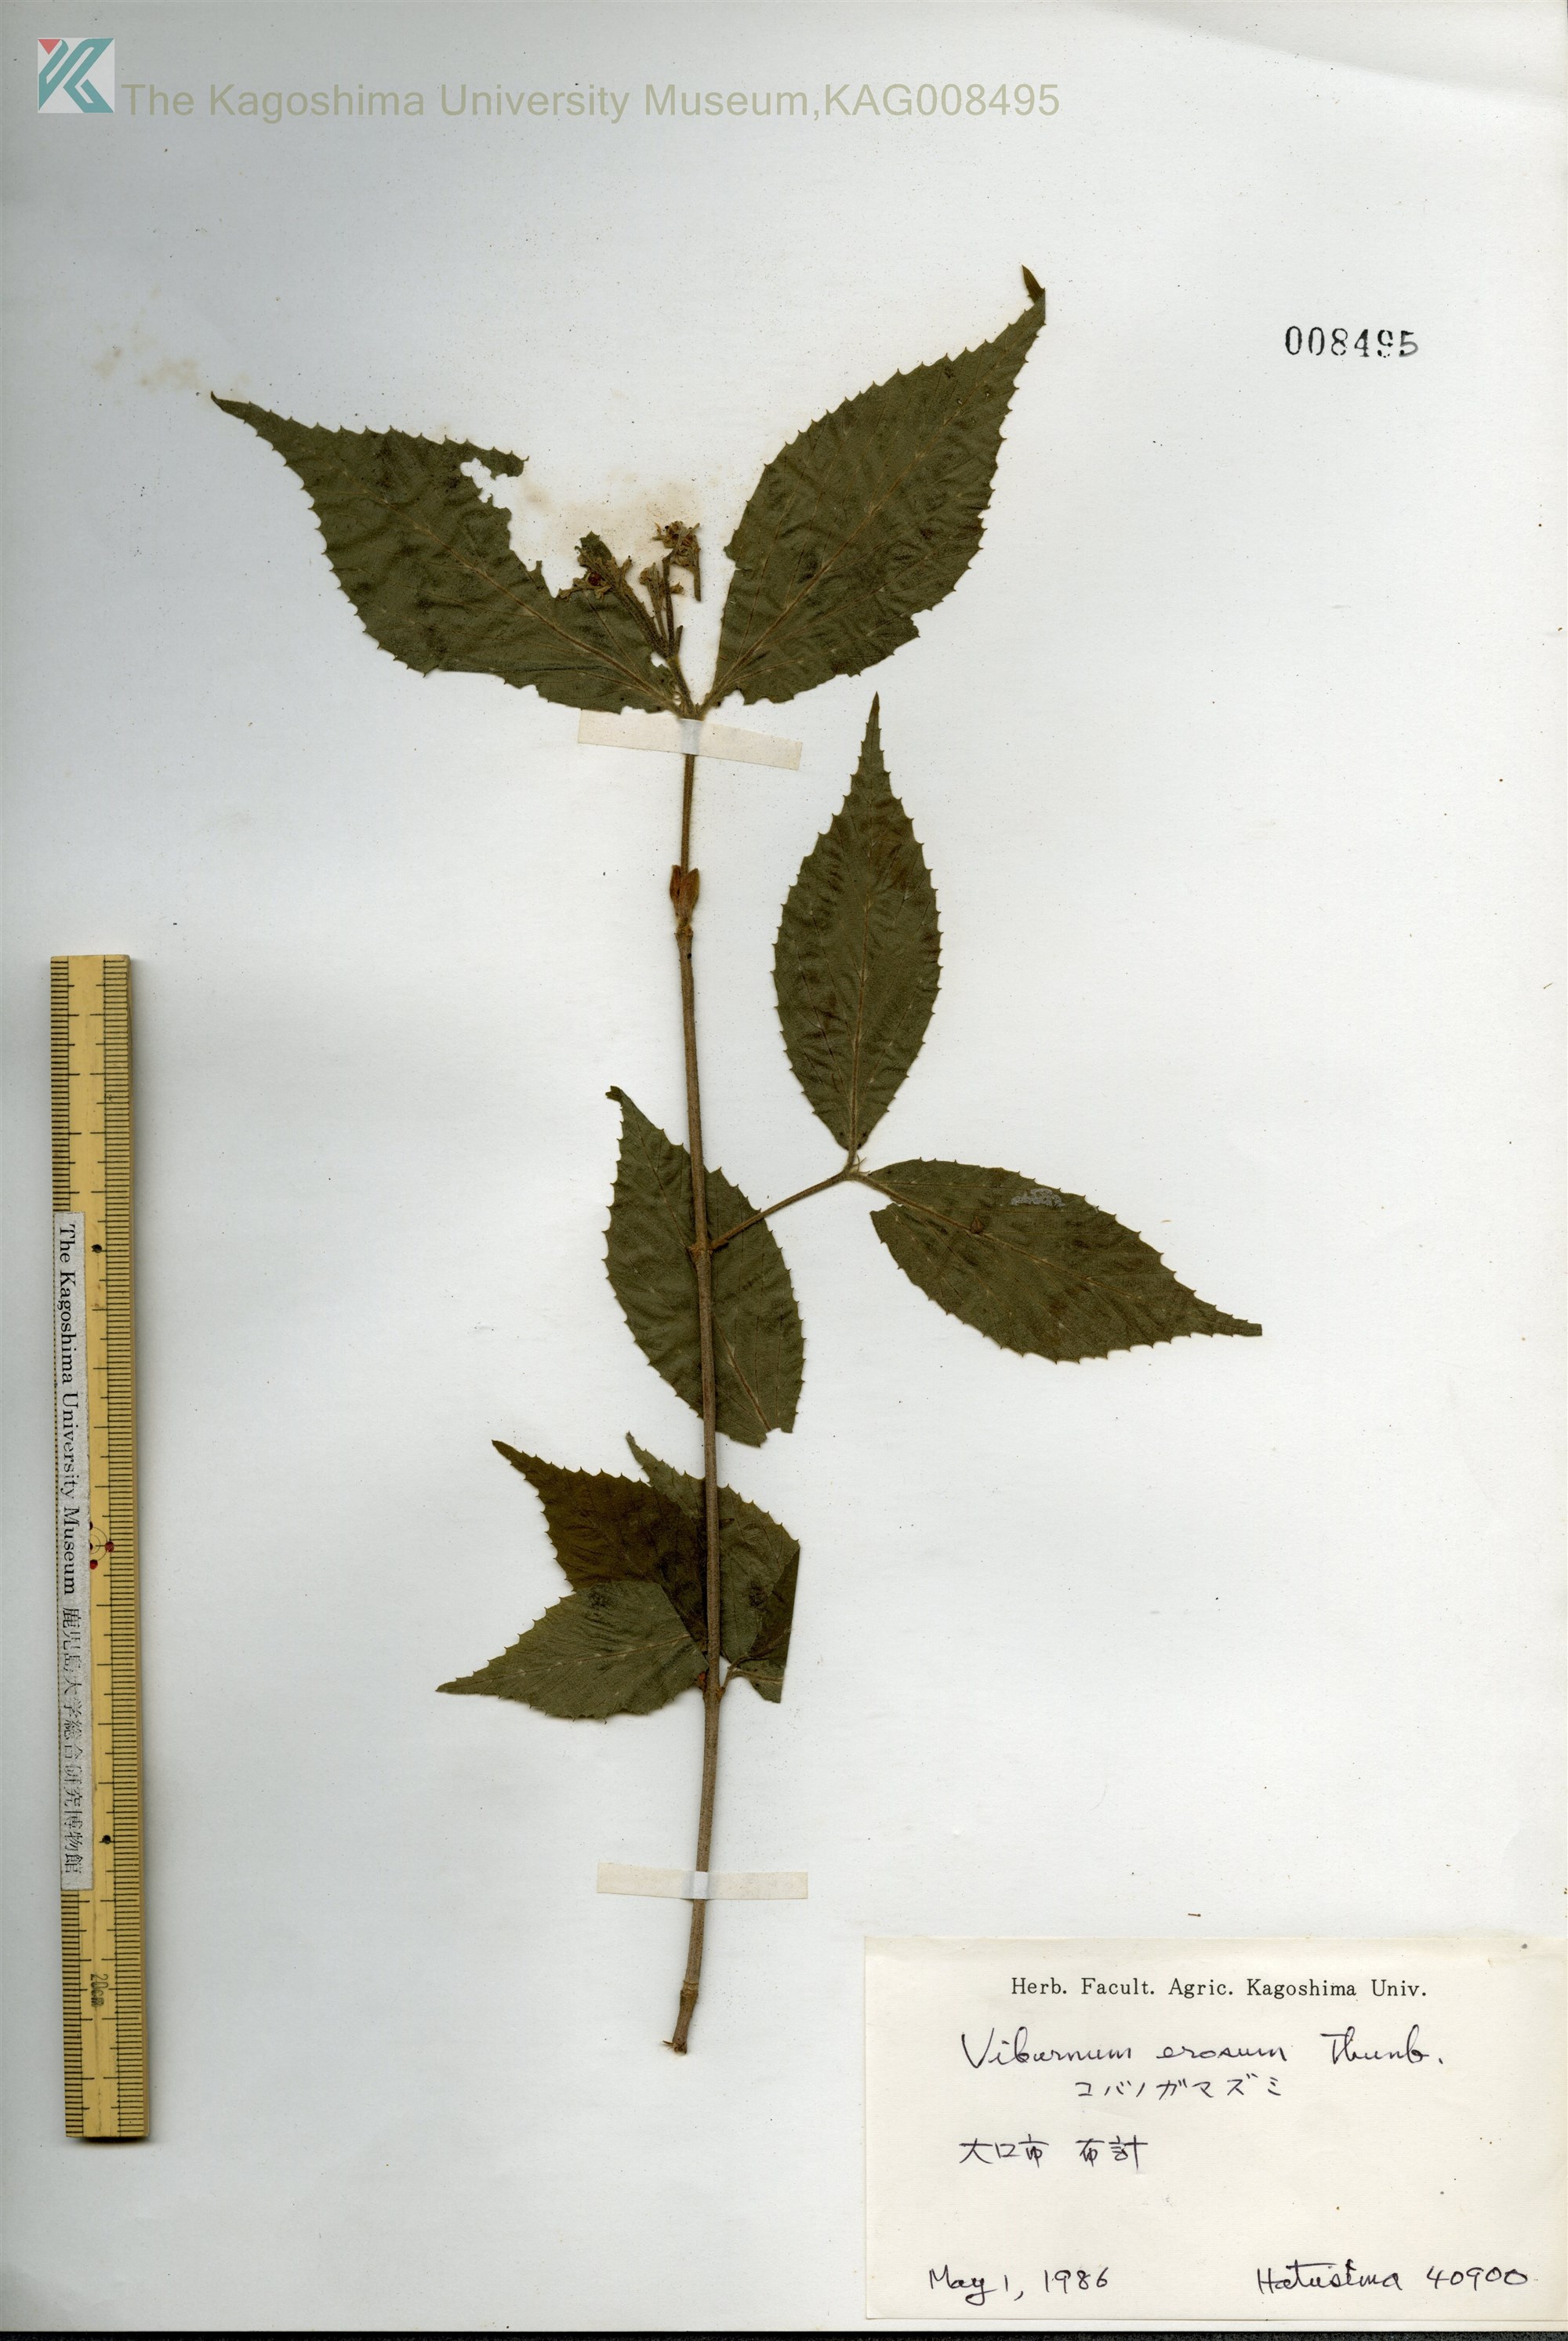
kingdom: Plantae
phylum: Tracheophyta
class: Magnoliopsida
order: Dipsacales
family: Viburnaceae
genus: Viburnum
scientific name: Viburnum erosum
